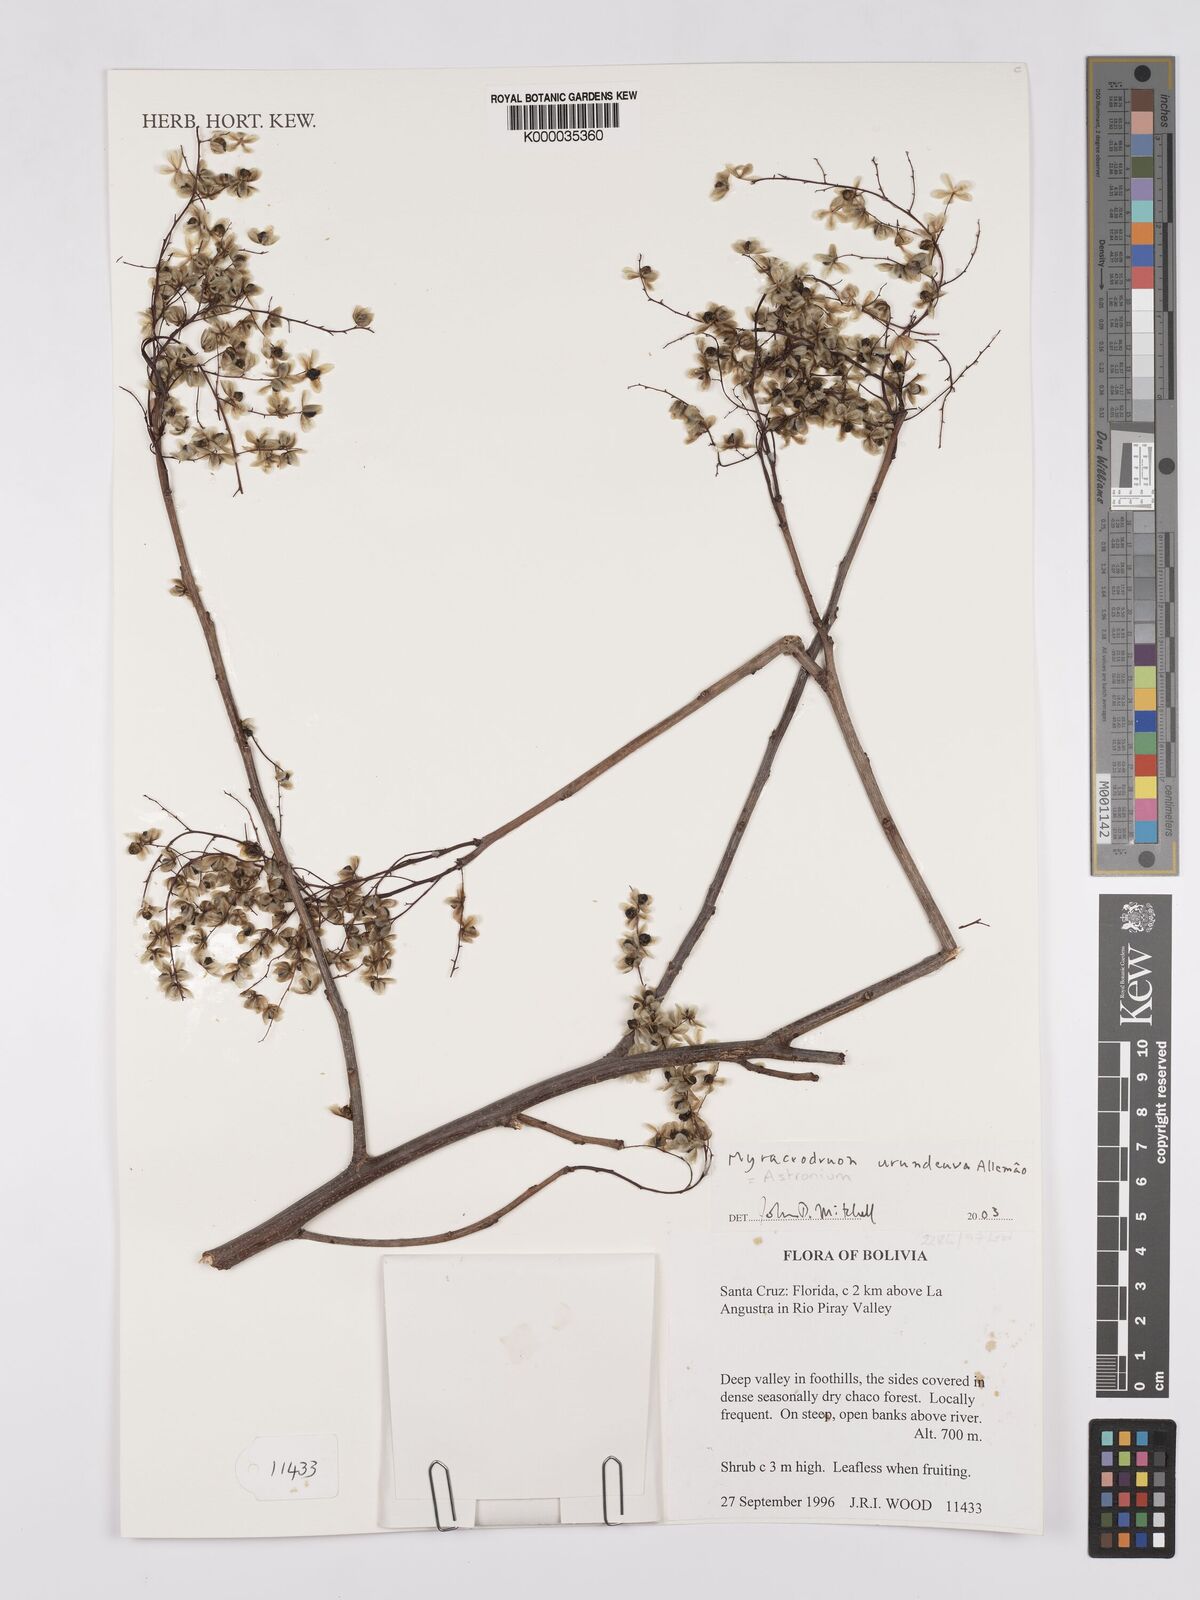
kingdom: Plantae
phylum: Tracheophyta
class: Magnoliopsida
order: Sapindales
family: Anacardiaceae
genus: Myracrodruon
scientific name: Myracrodruon urundeuva
